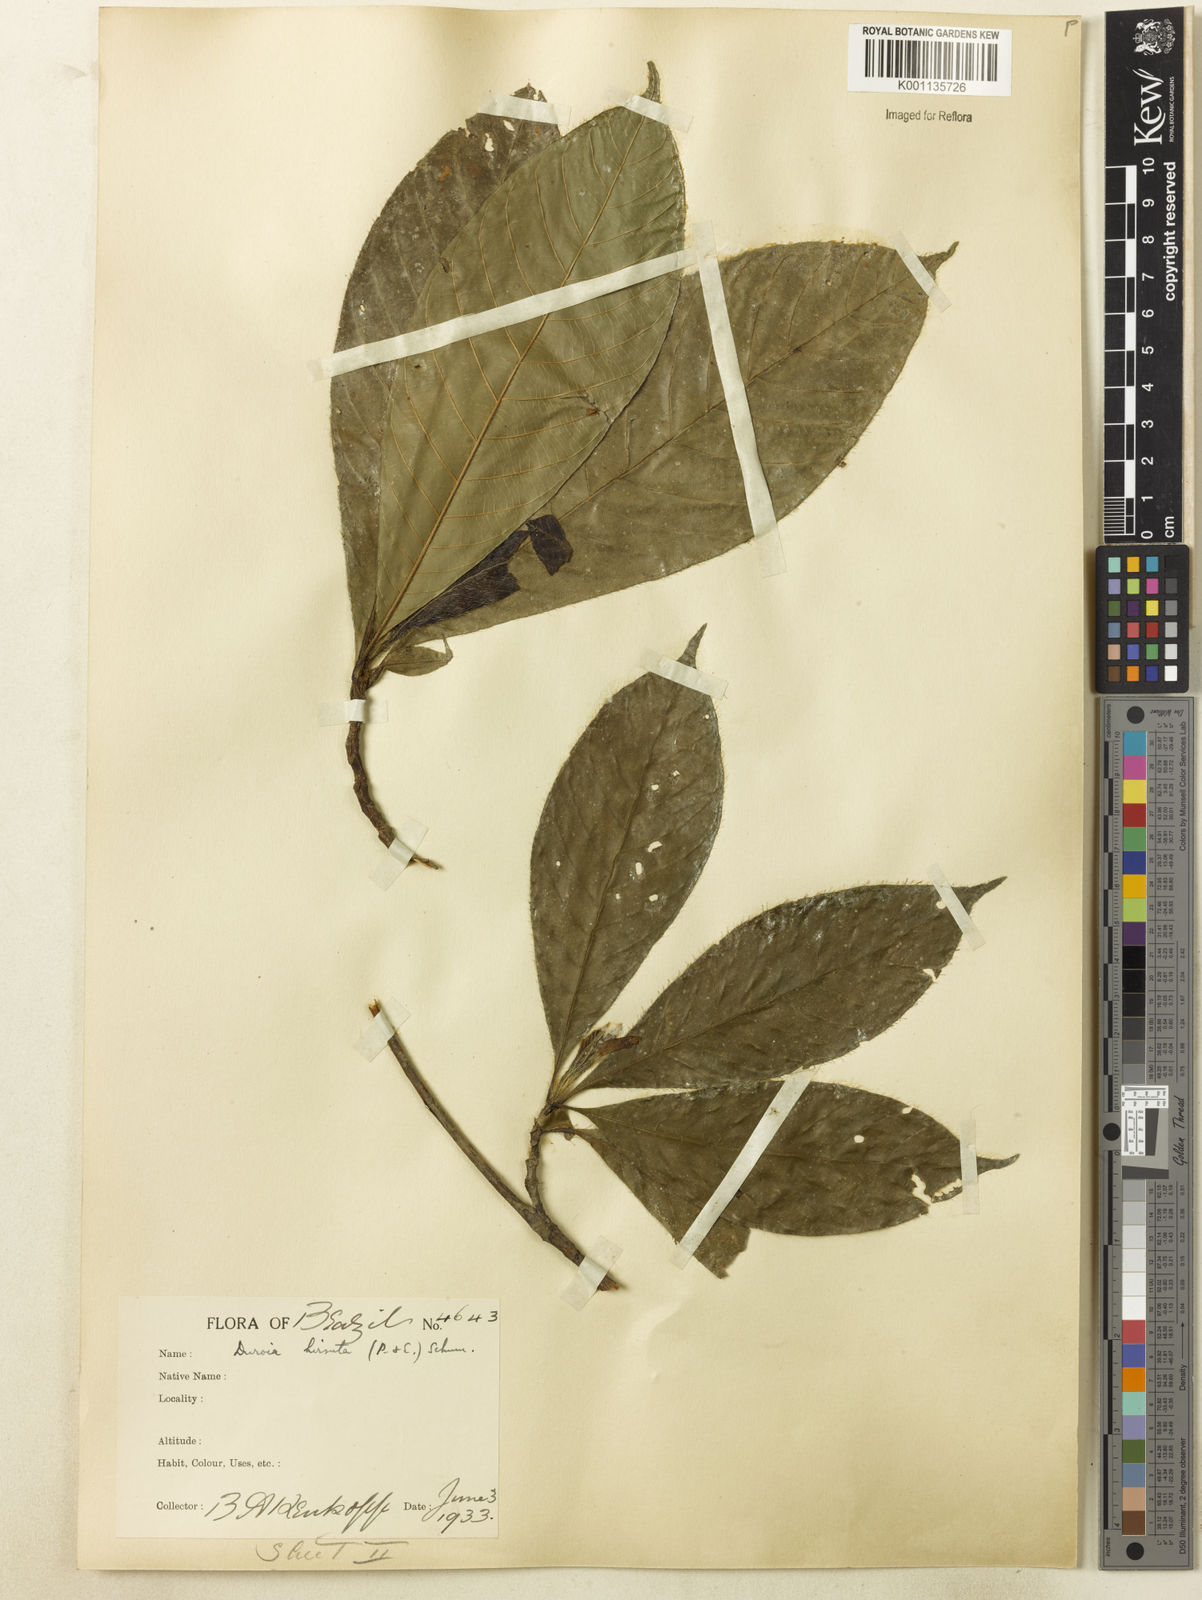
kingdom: Plantae
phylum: Tracheophyta
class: Magnoliopsida
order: Gentianales
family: Rubiaceae
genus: Duroia
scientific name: Duroia hirsuta
